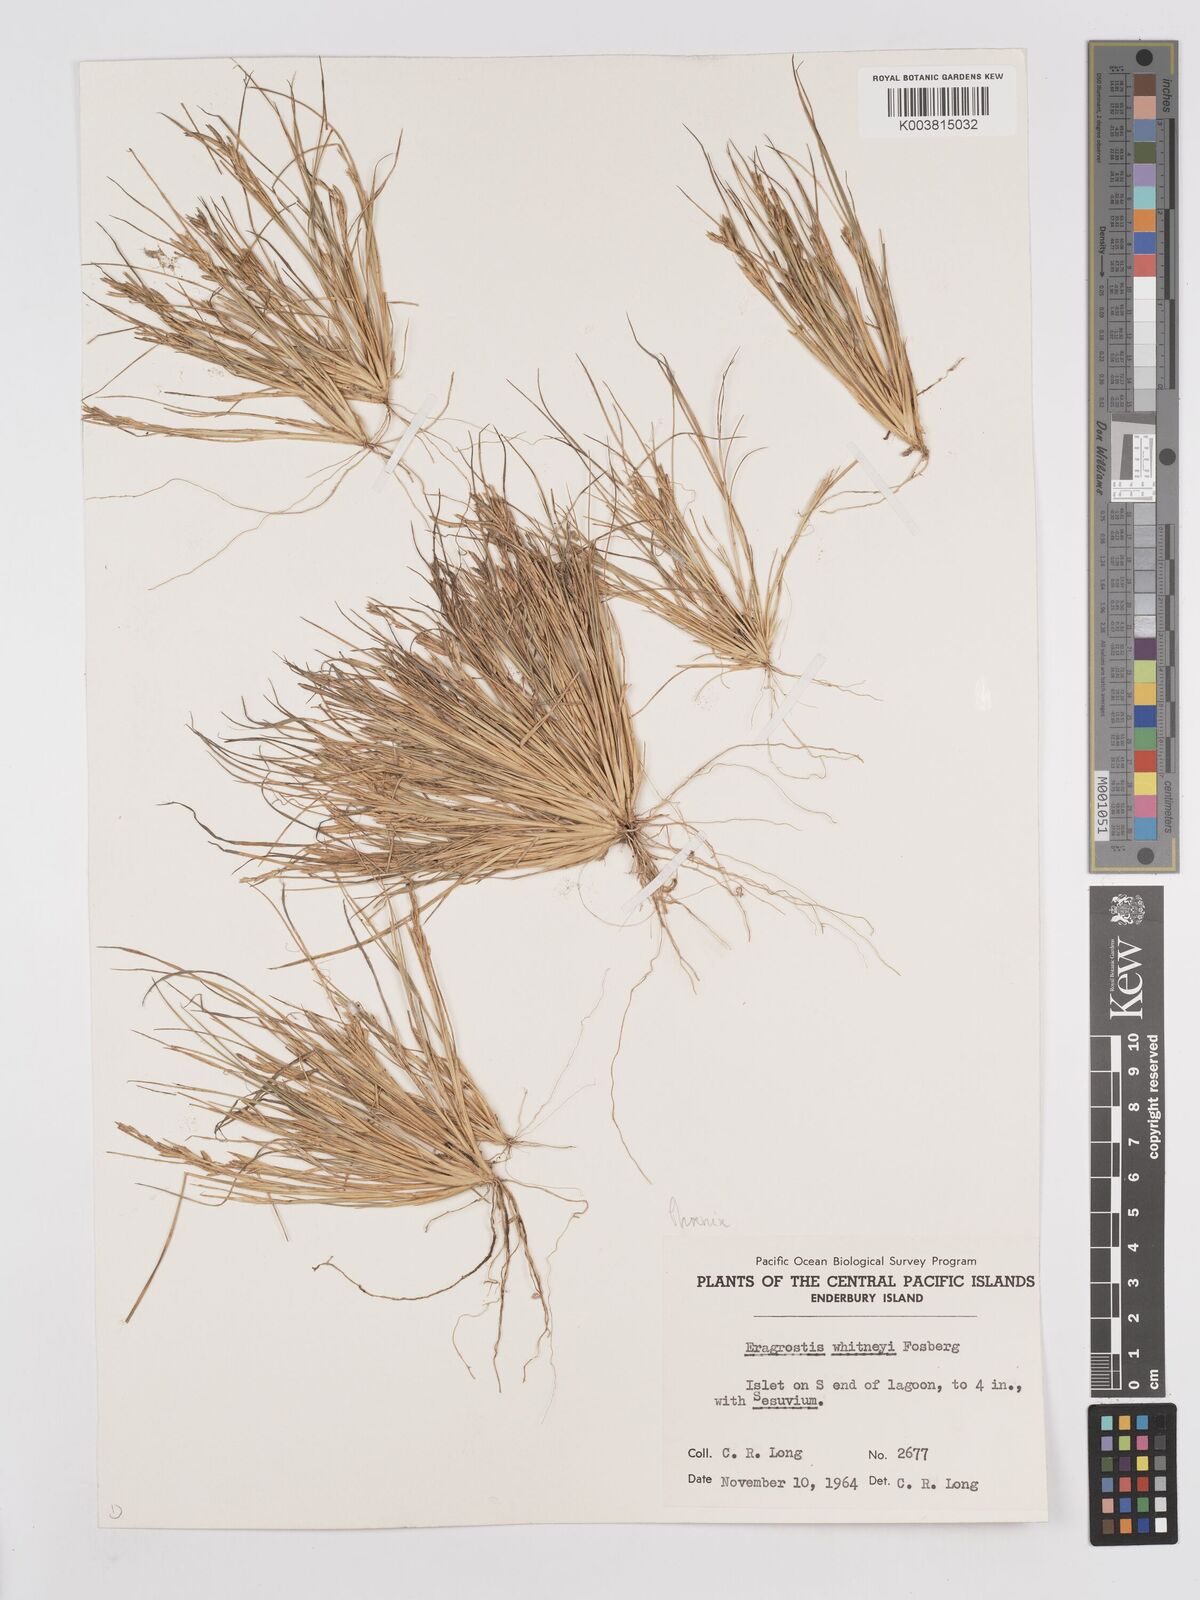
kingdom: Plantae
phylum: Tracheophyta
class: Liliopsida
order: Poales
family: Poaceae
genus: Eragrostis
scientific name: Eragrostis paupera
